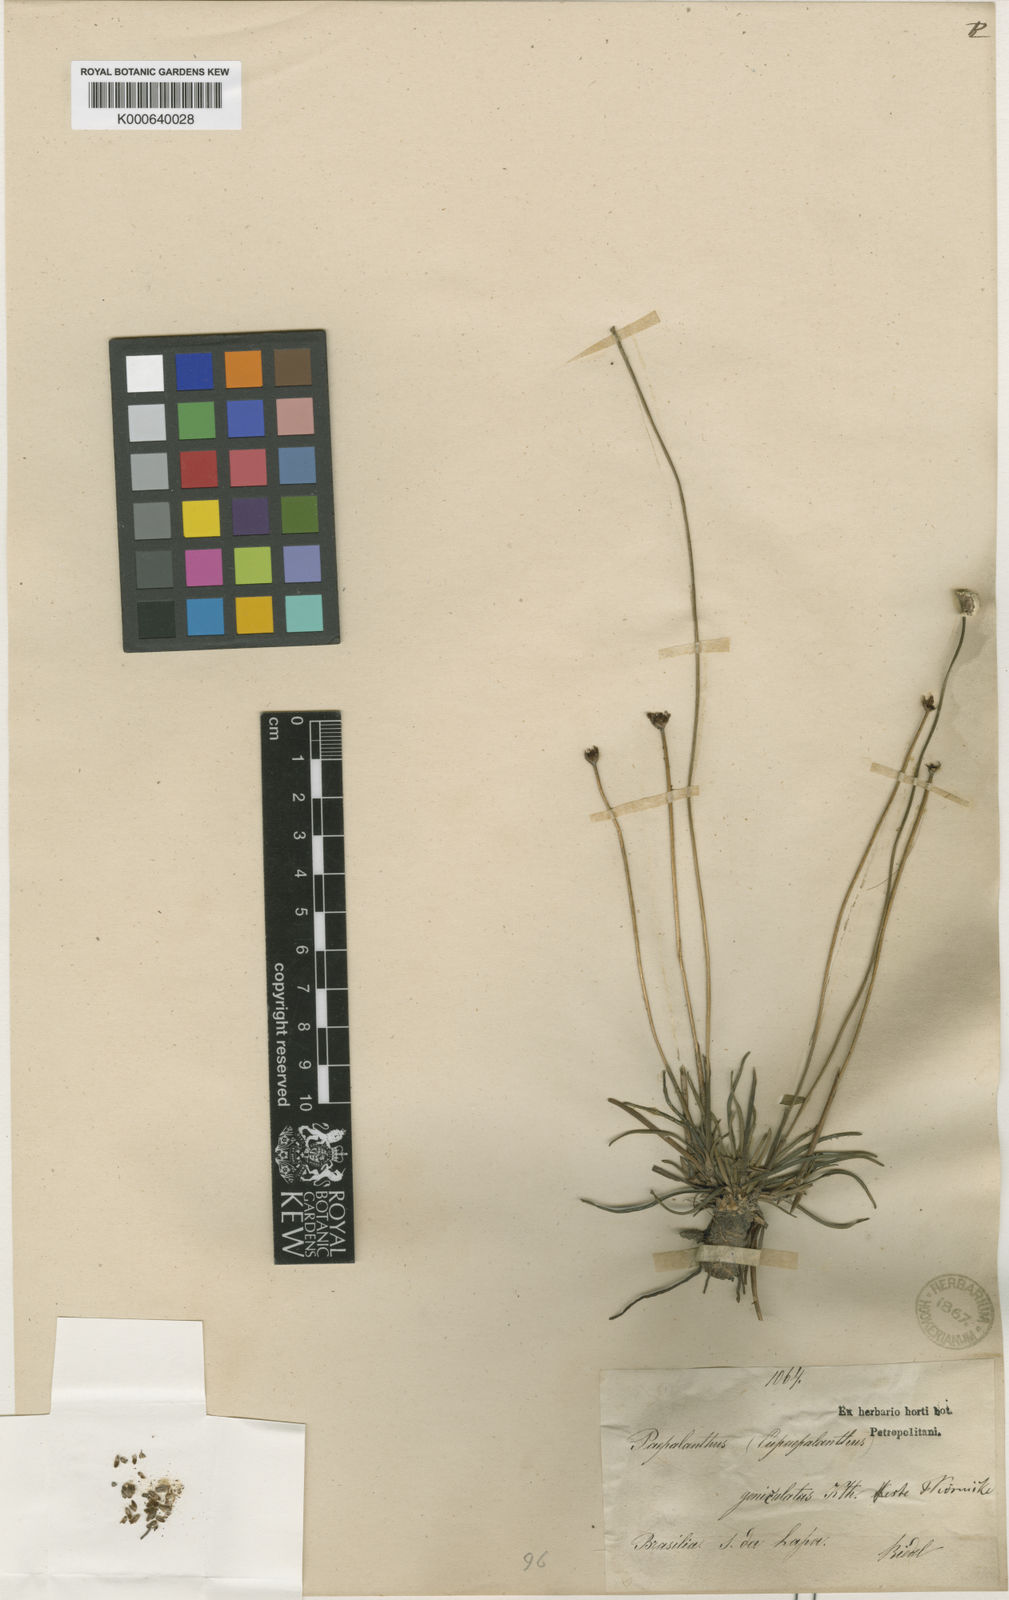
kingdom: Plantae
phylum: Tracheophyta
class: Liliopsida
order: Poales
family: Eriocaulaceae
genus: Paepalanthus
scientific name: Paepalanthus geniculatus
